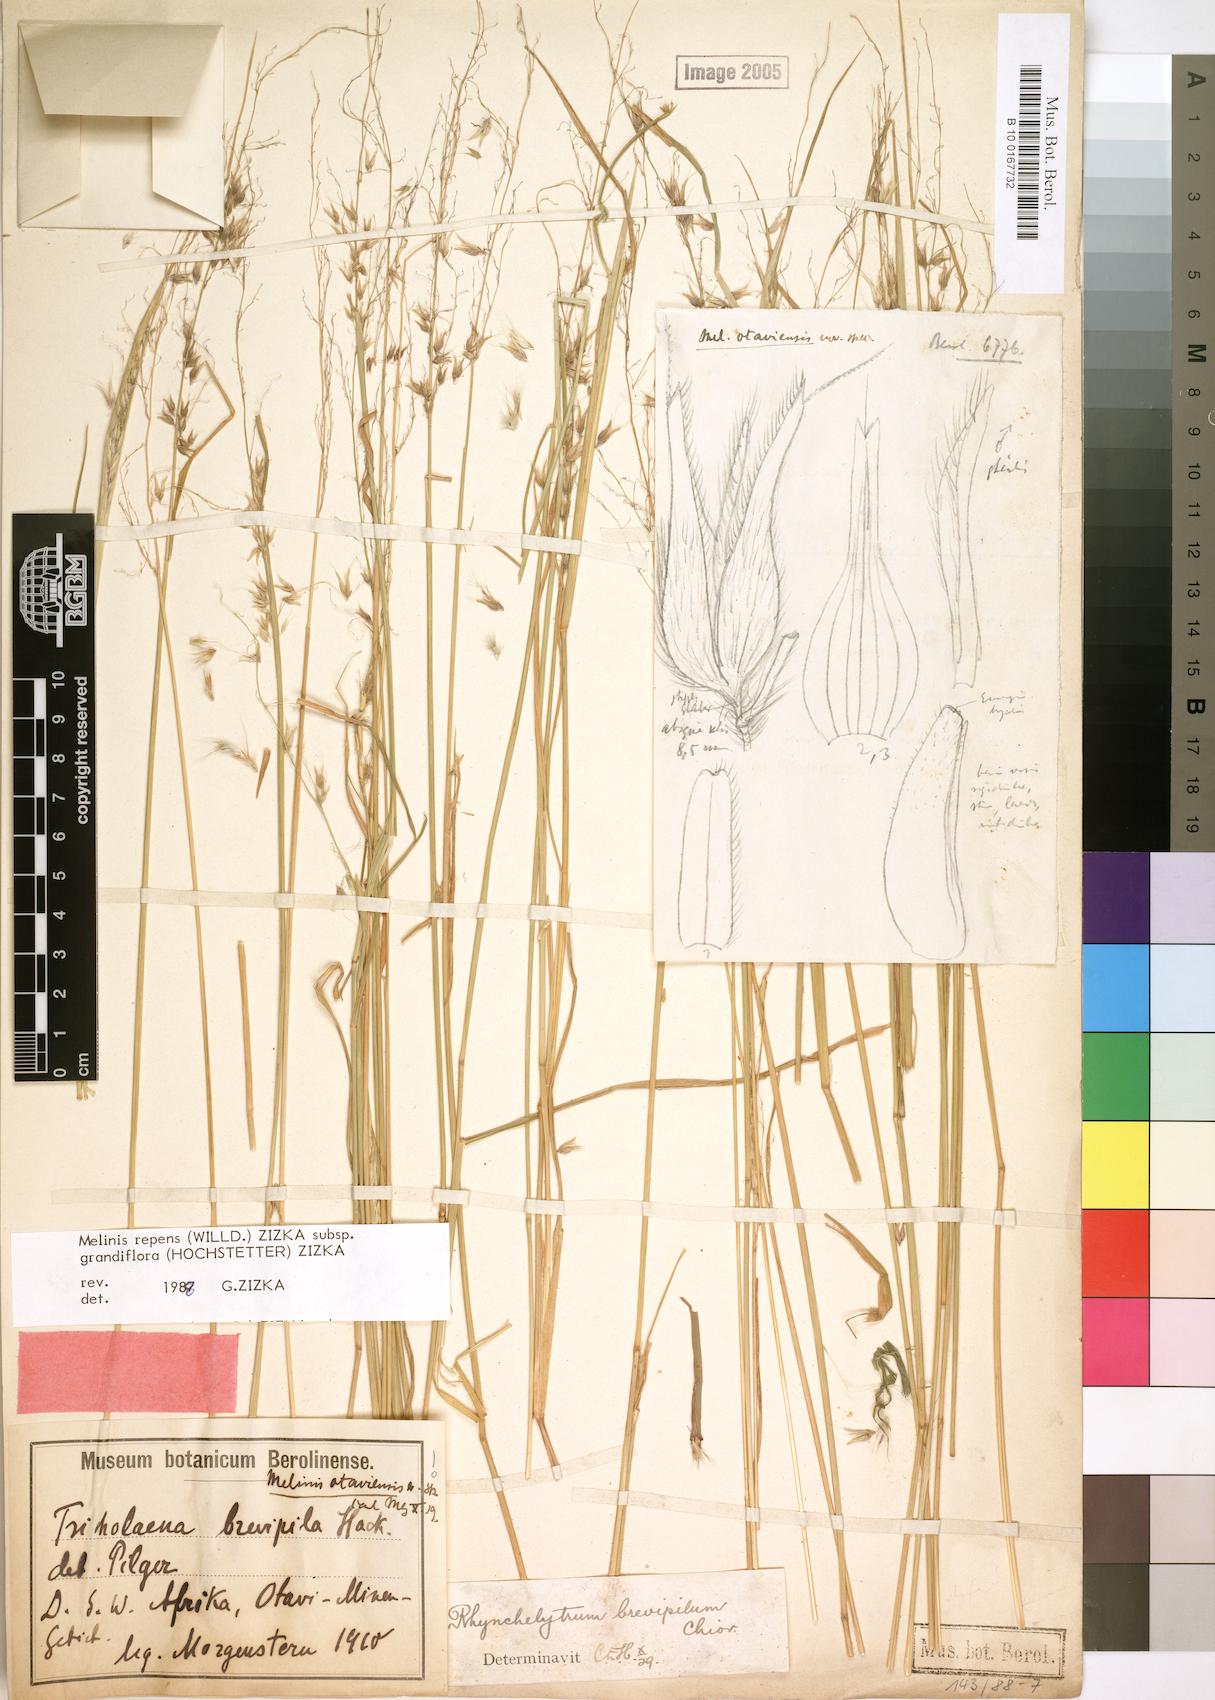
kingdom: Plantae
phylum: Tracheophyta
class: Liliopsida
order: Poales
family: Poaceae
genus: Melinis
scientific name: Melinis repens
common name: Rose natal grass
